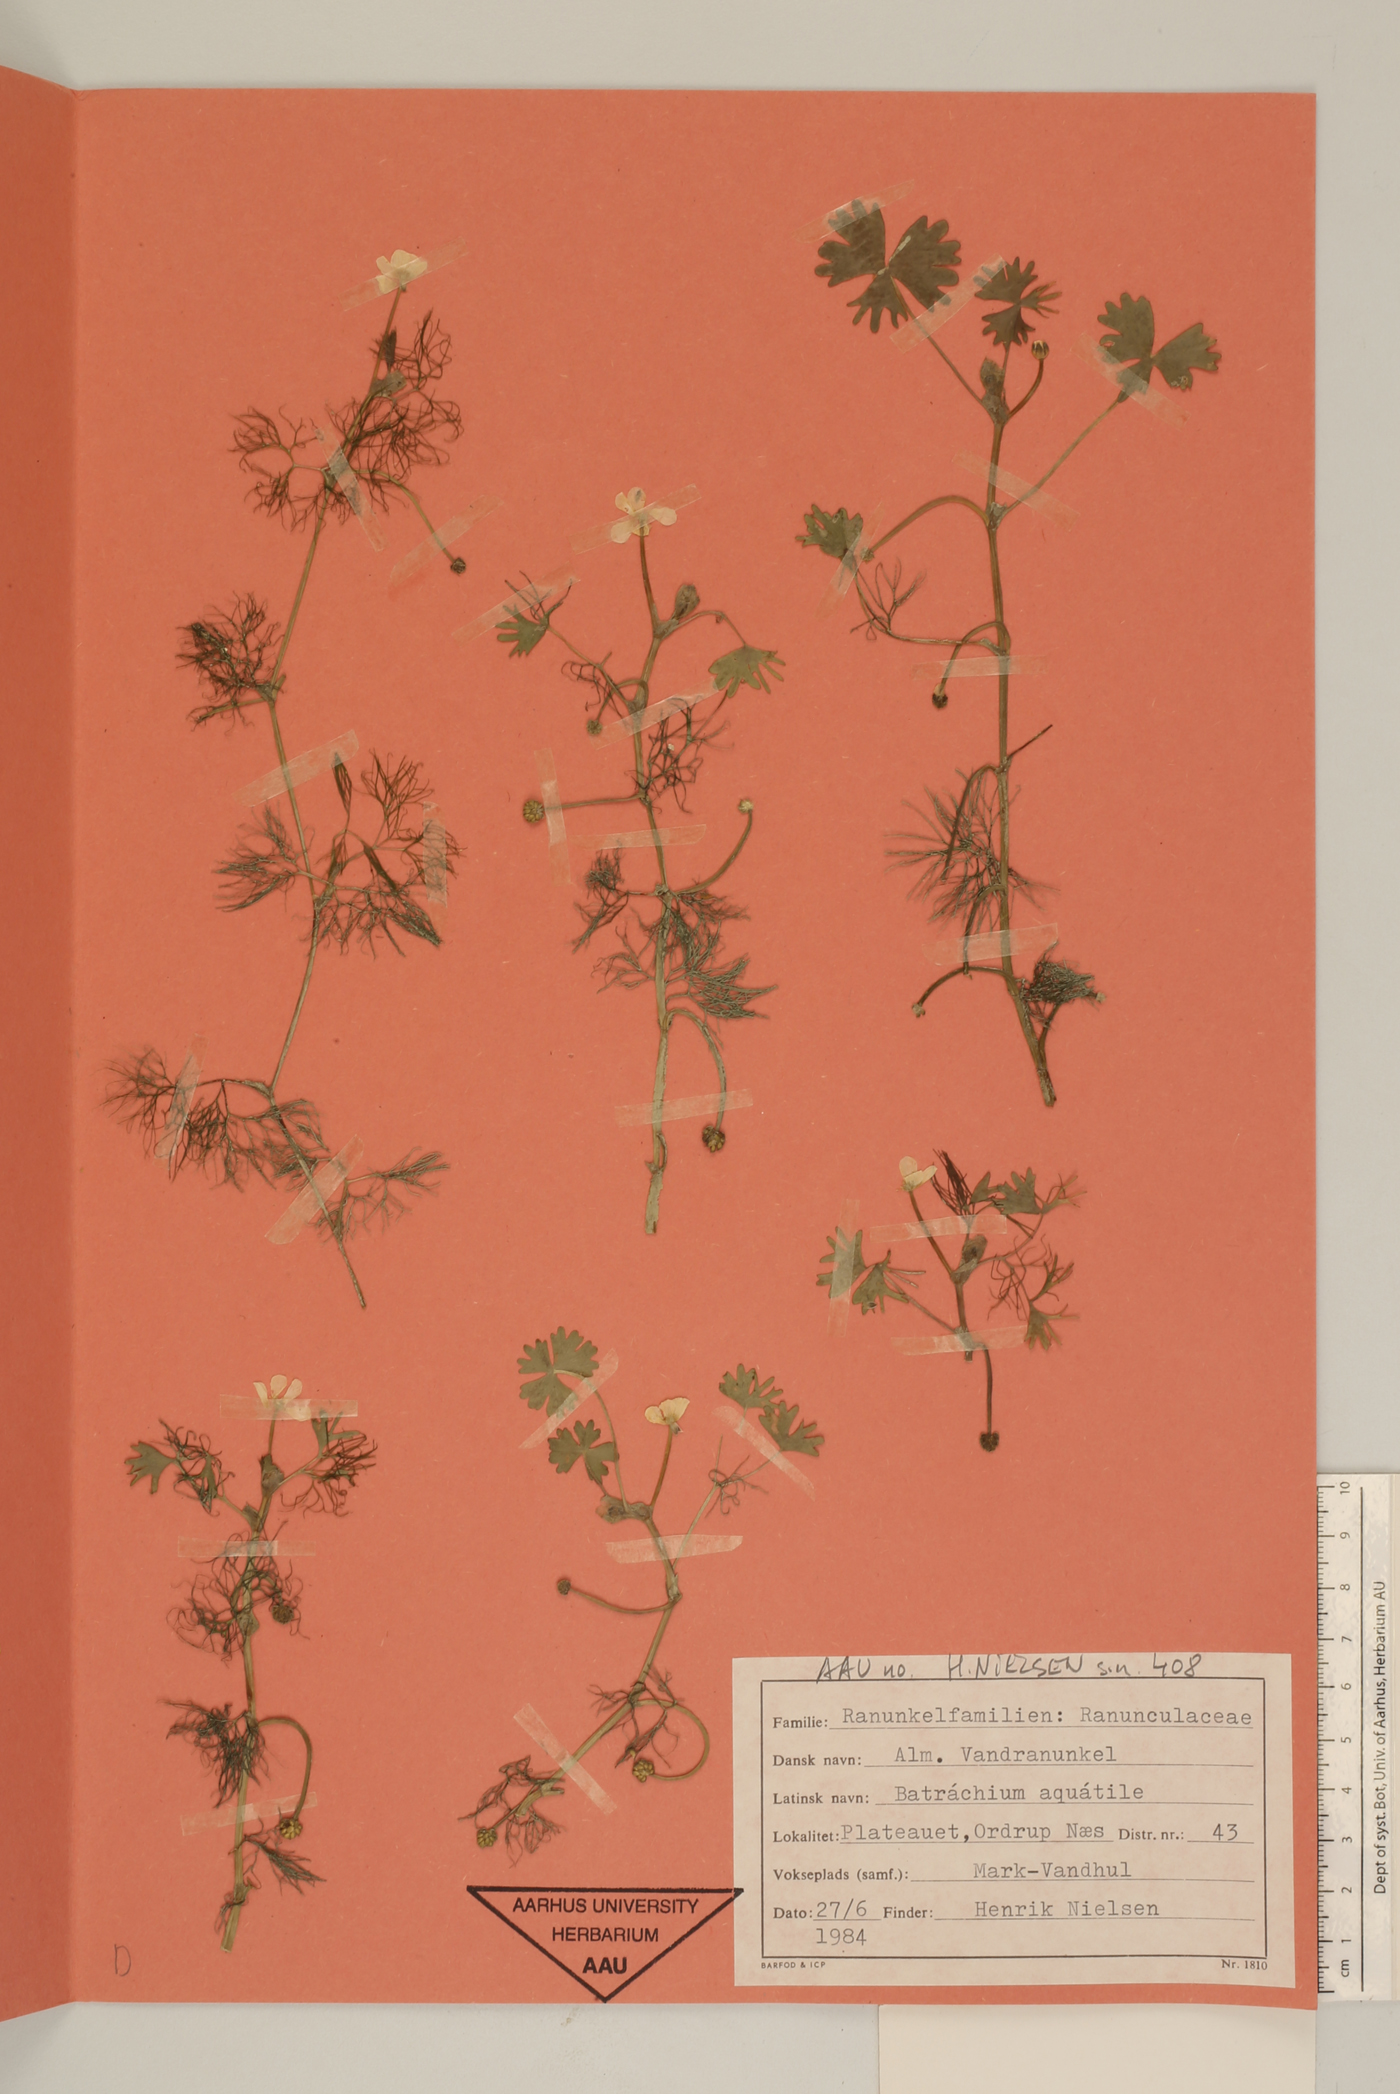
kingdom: Plantae
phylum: Tracheophyta
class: Magnoliopsida
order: Ranunculales
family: Ranunculaceae
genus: Ranunculus
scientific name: Ranunculus aquatilis
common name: Common water-crowfoot
